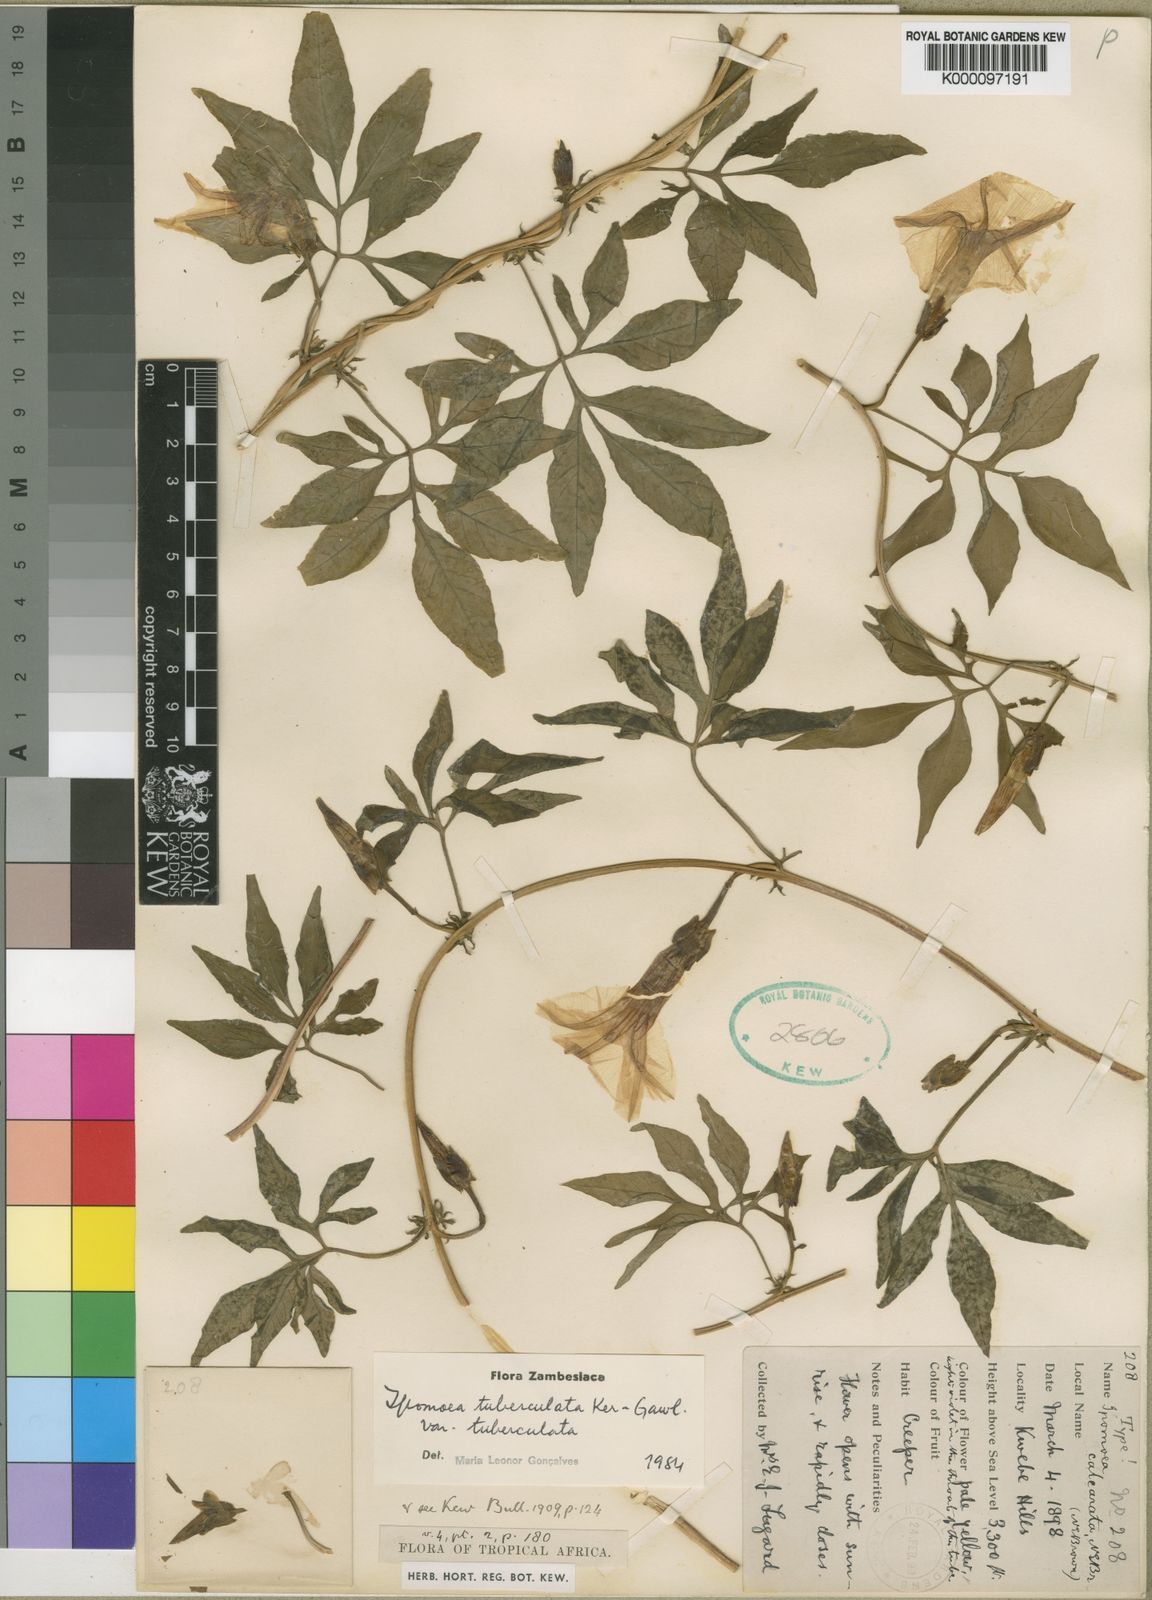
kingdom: Plantae
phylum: Tracheophyta
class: Magnoliopsida
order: Solanales
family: Convolvulaceae
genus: Ipomoea
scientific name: Ipomoea tuberculata
